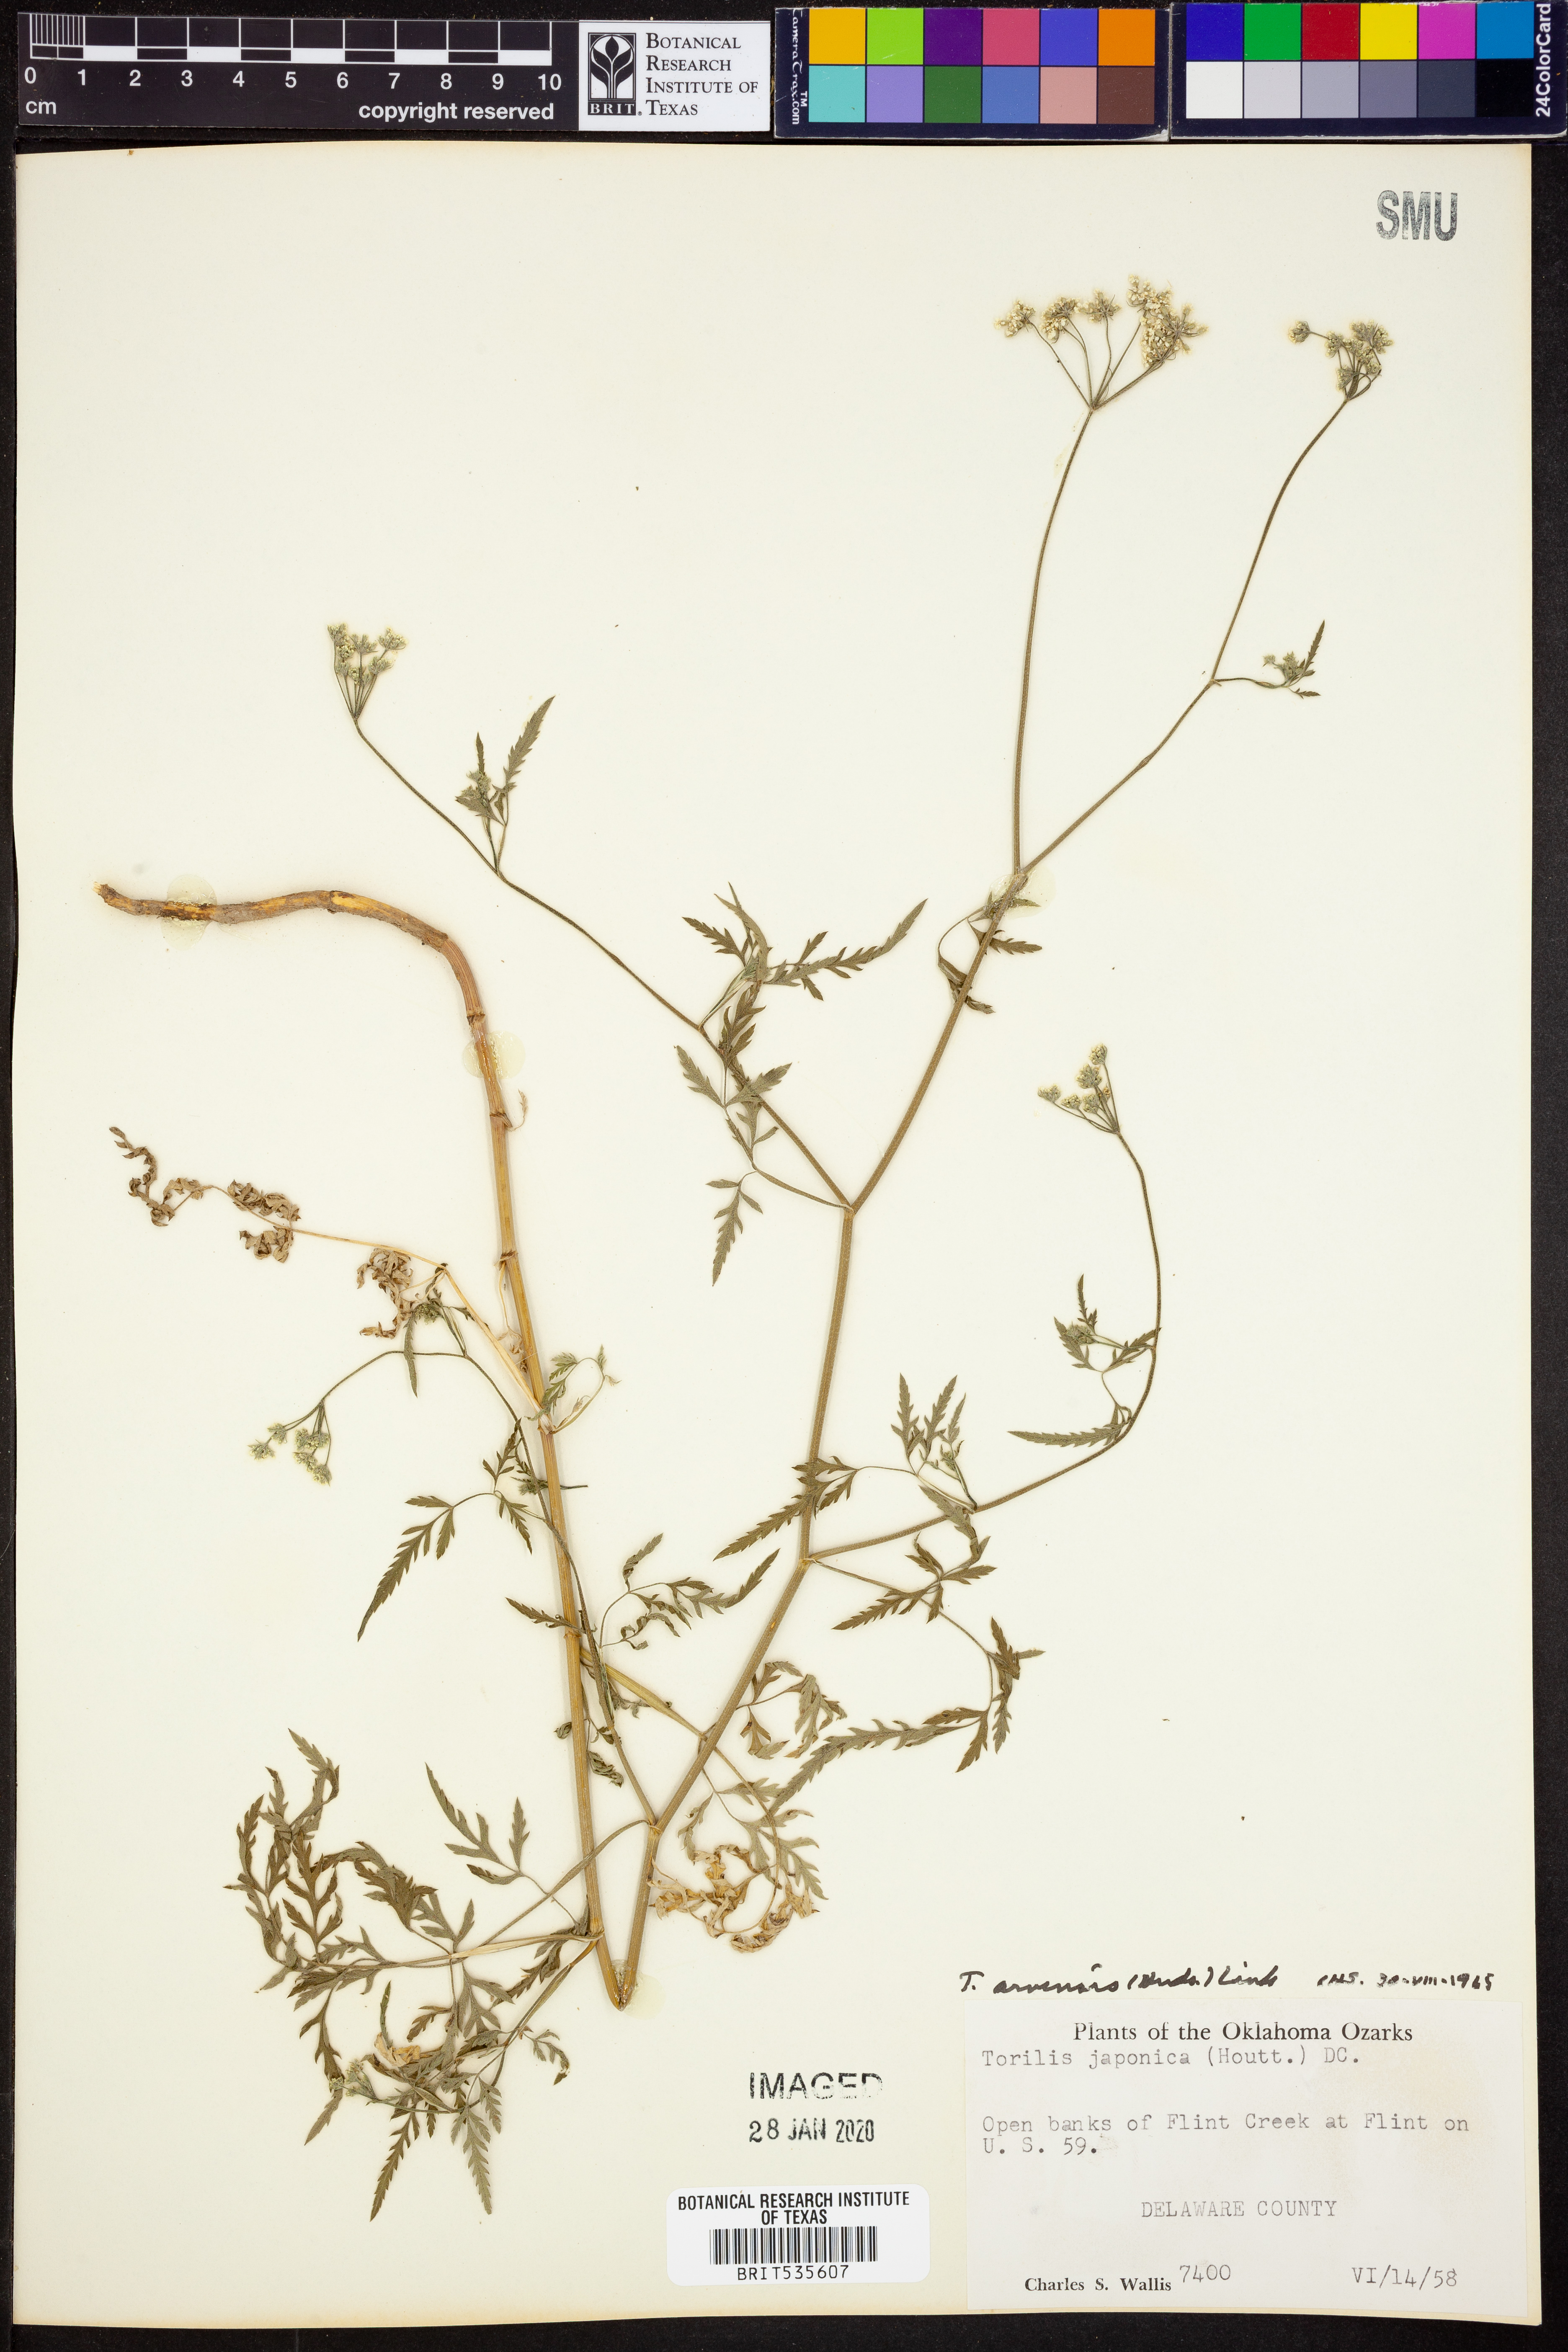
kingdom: Plantae
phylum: Tracheophyta
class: Magnoliopsida
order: Apiales
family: Apiaceae
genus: Torilis
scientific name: Torilis arvensis
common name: Spreading hedge-parsley
